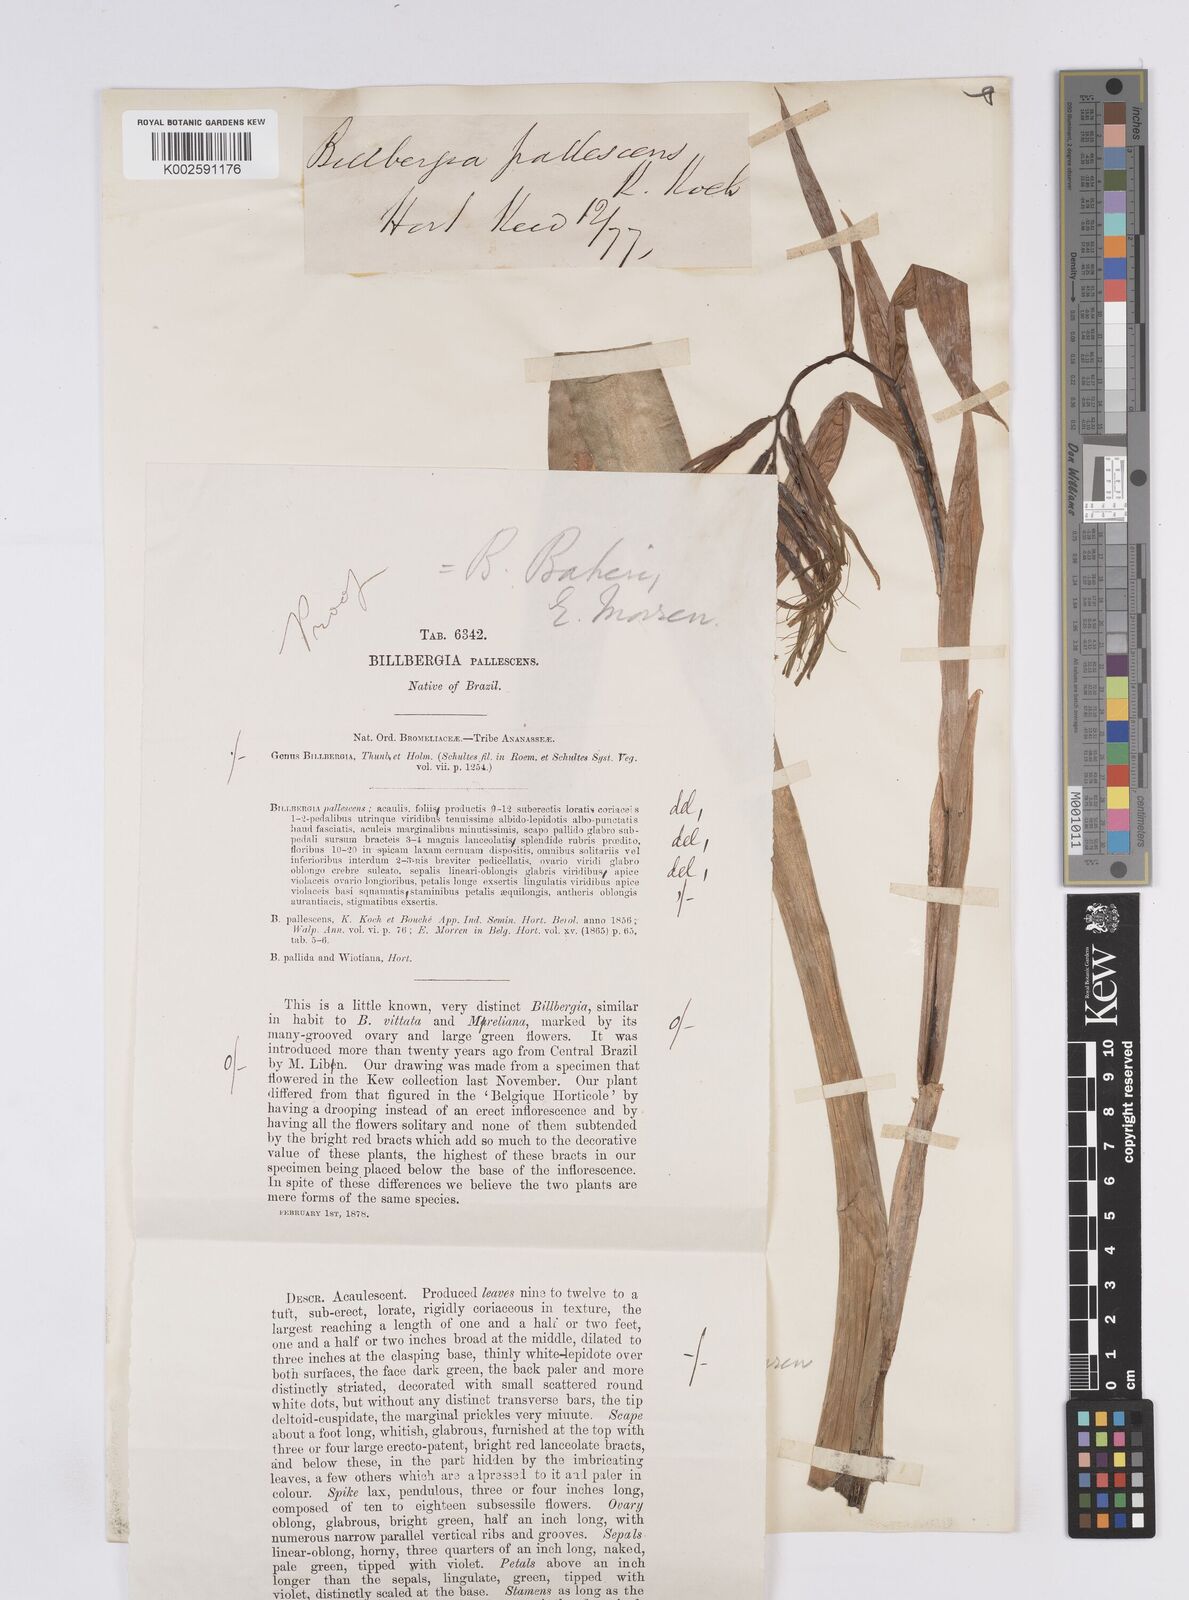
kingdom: Plantae
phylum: Tracheophyta
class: Liliopsida
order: Poales
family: Bromeliaceae
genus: Billbergia
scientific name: Billbergia distachia
